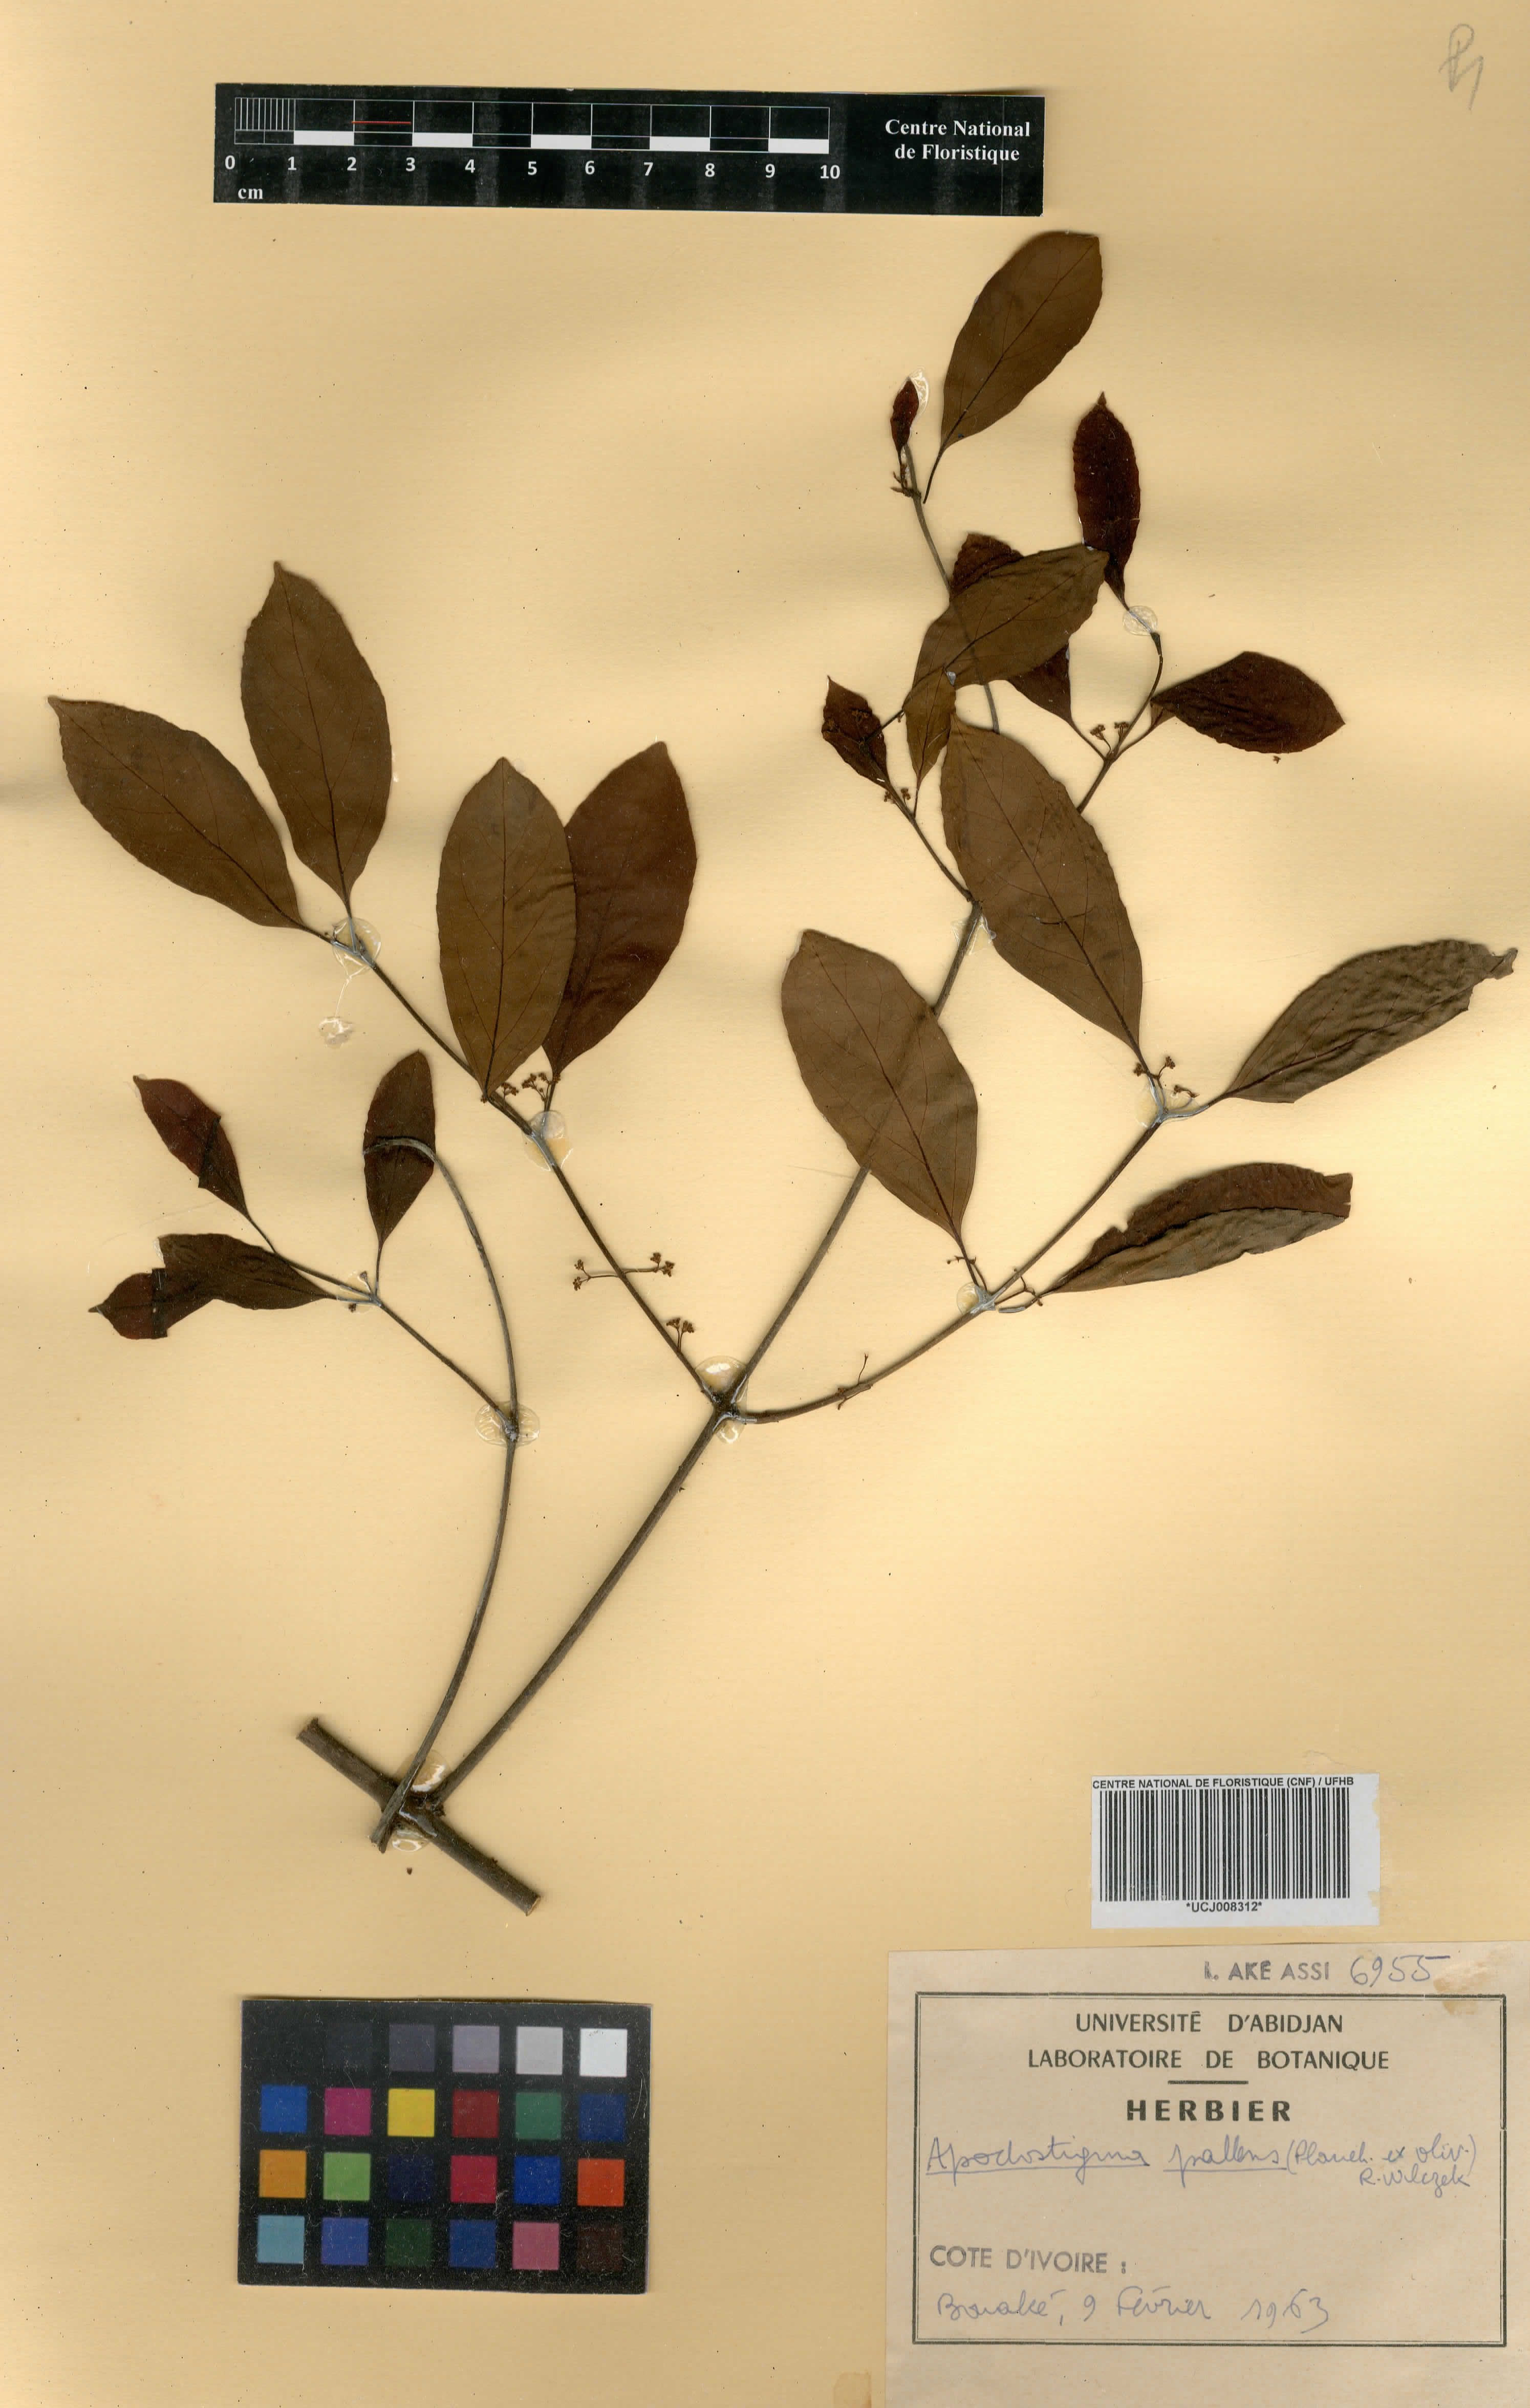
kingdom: Plantae
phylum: Tracheophyta
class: Magnoliopsida
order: Celastrales
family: Celastraceae
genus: Apodostigma
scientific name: Apodostigma pallens
